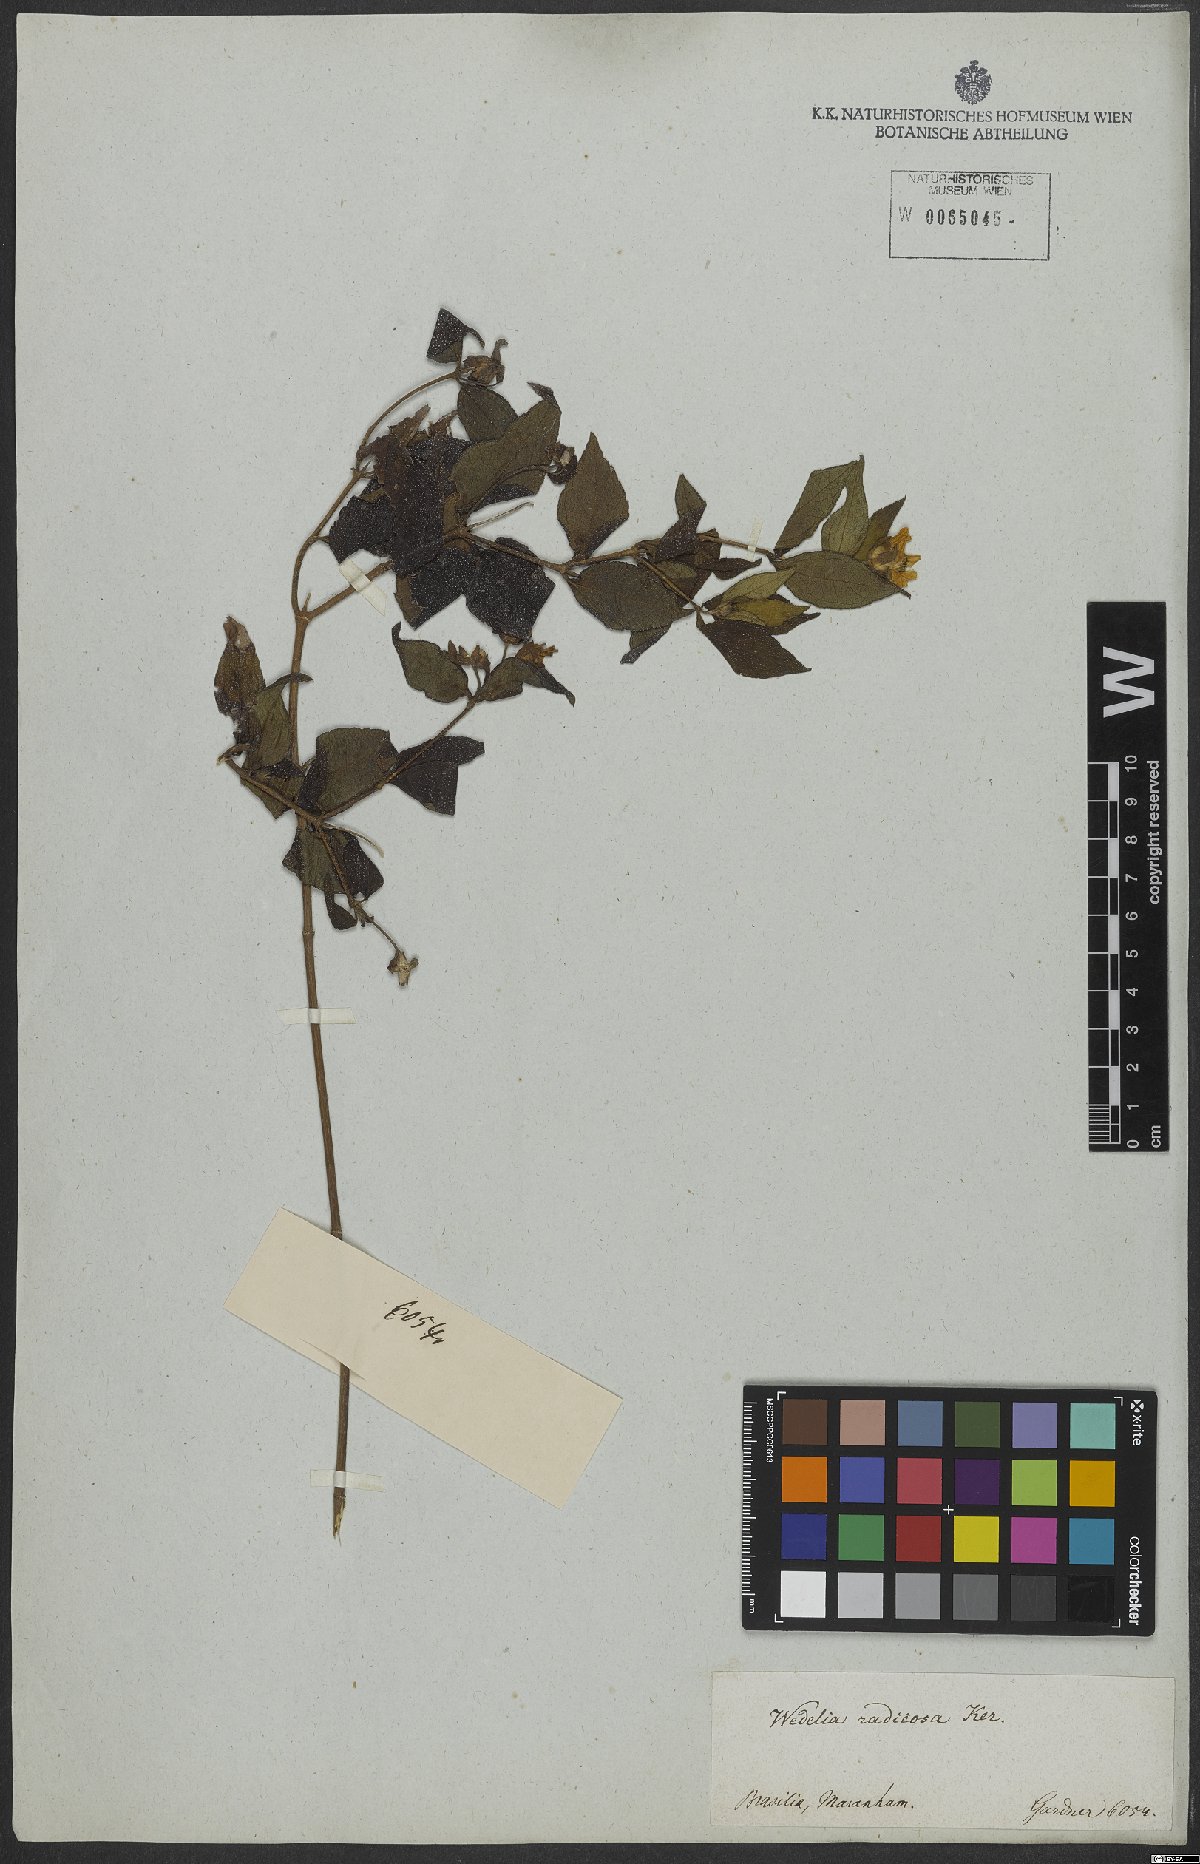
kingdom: Plantae
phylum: Tracheophyta
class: Magnoliopsida
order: Asterales
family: Asteraceae
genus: Wedelia
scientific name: Wedelia radiosa
